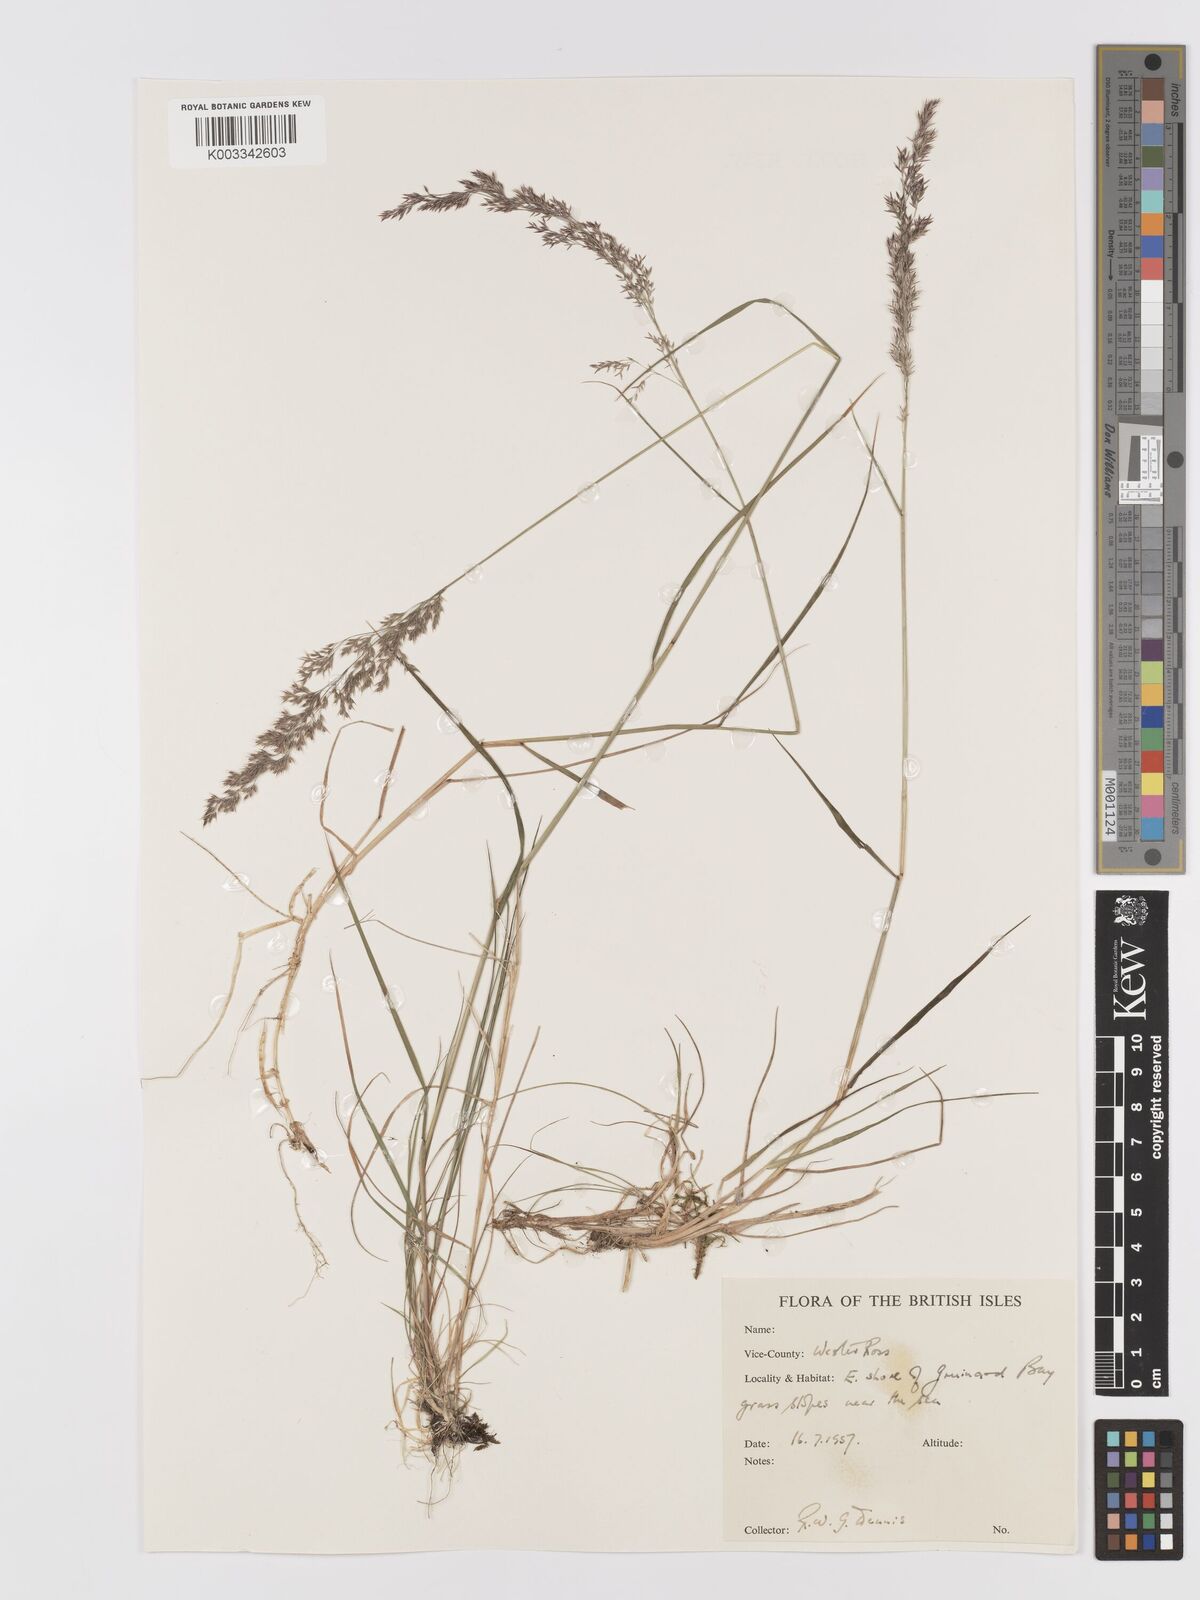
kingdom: Plantae
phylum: Tracheophyta
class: Liliopsida
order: Poales
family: Poaceae
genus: Agrostis
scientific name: Agrostis
